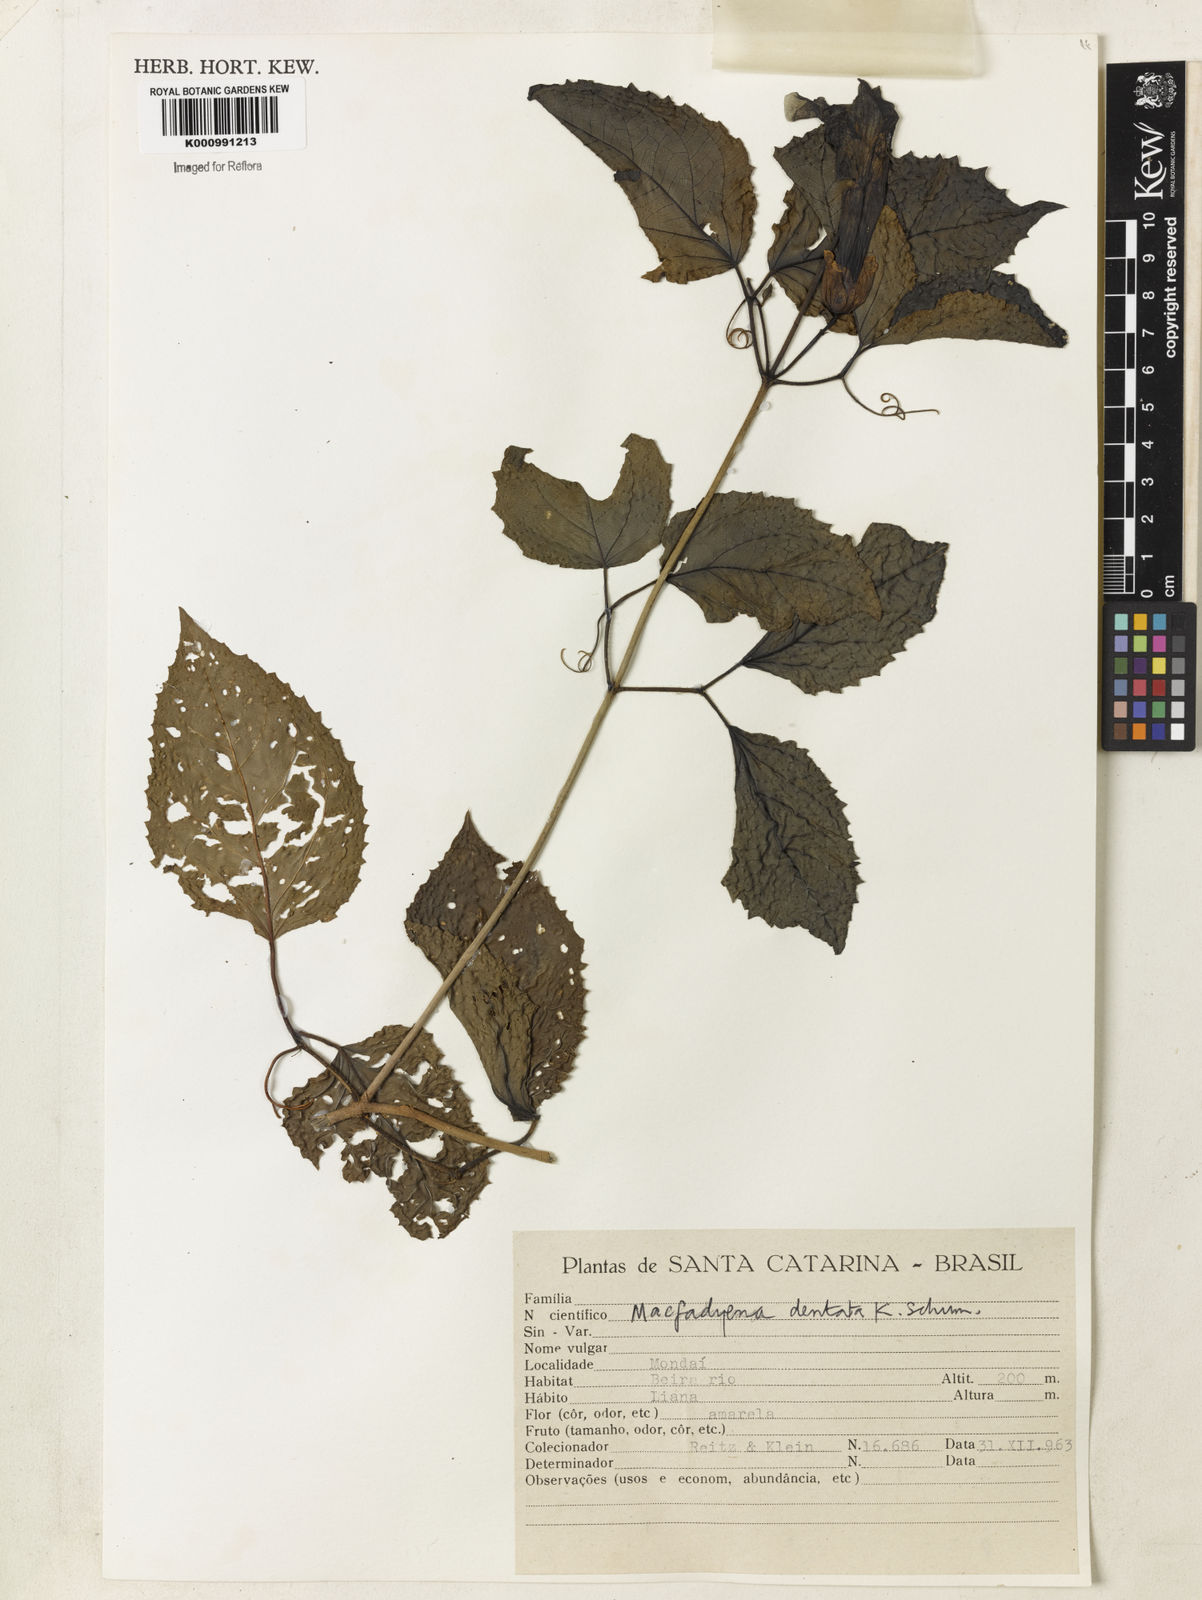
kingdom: Plantae
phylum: Tracheophyta
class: Magnoliopsida
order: Lamiales
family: Bignoniaceae
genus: Dolichandra
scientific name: Dolichandra dentata
